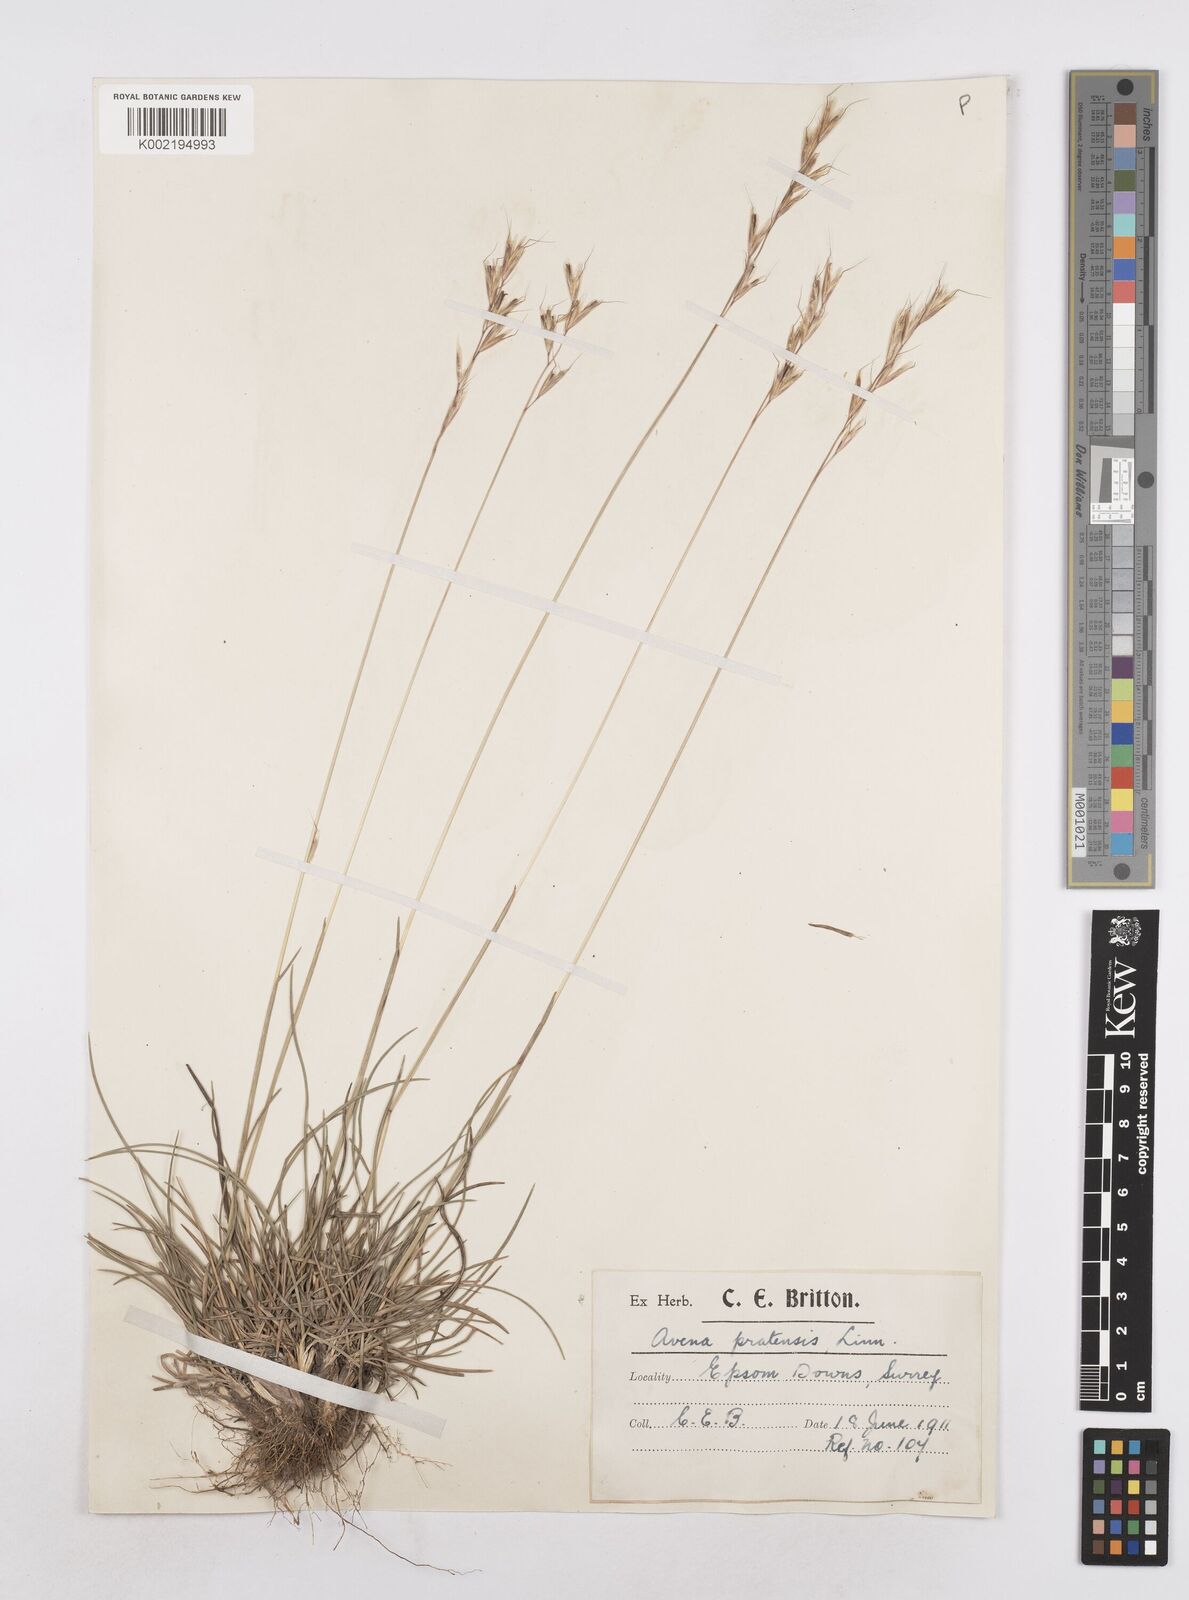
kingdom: Plantae
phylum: Tracheophyta
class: Liliopsida
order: Poales
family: Poaceae
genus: Helictochloa
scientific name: Helictochloa pratensis
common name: Meadow oat grass
